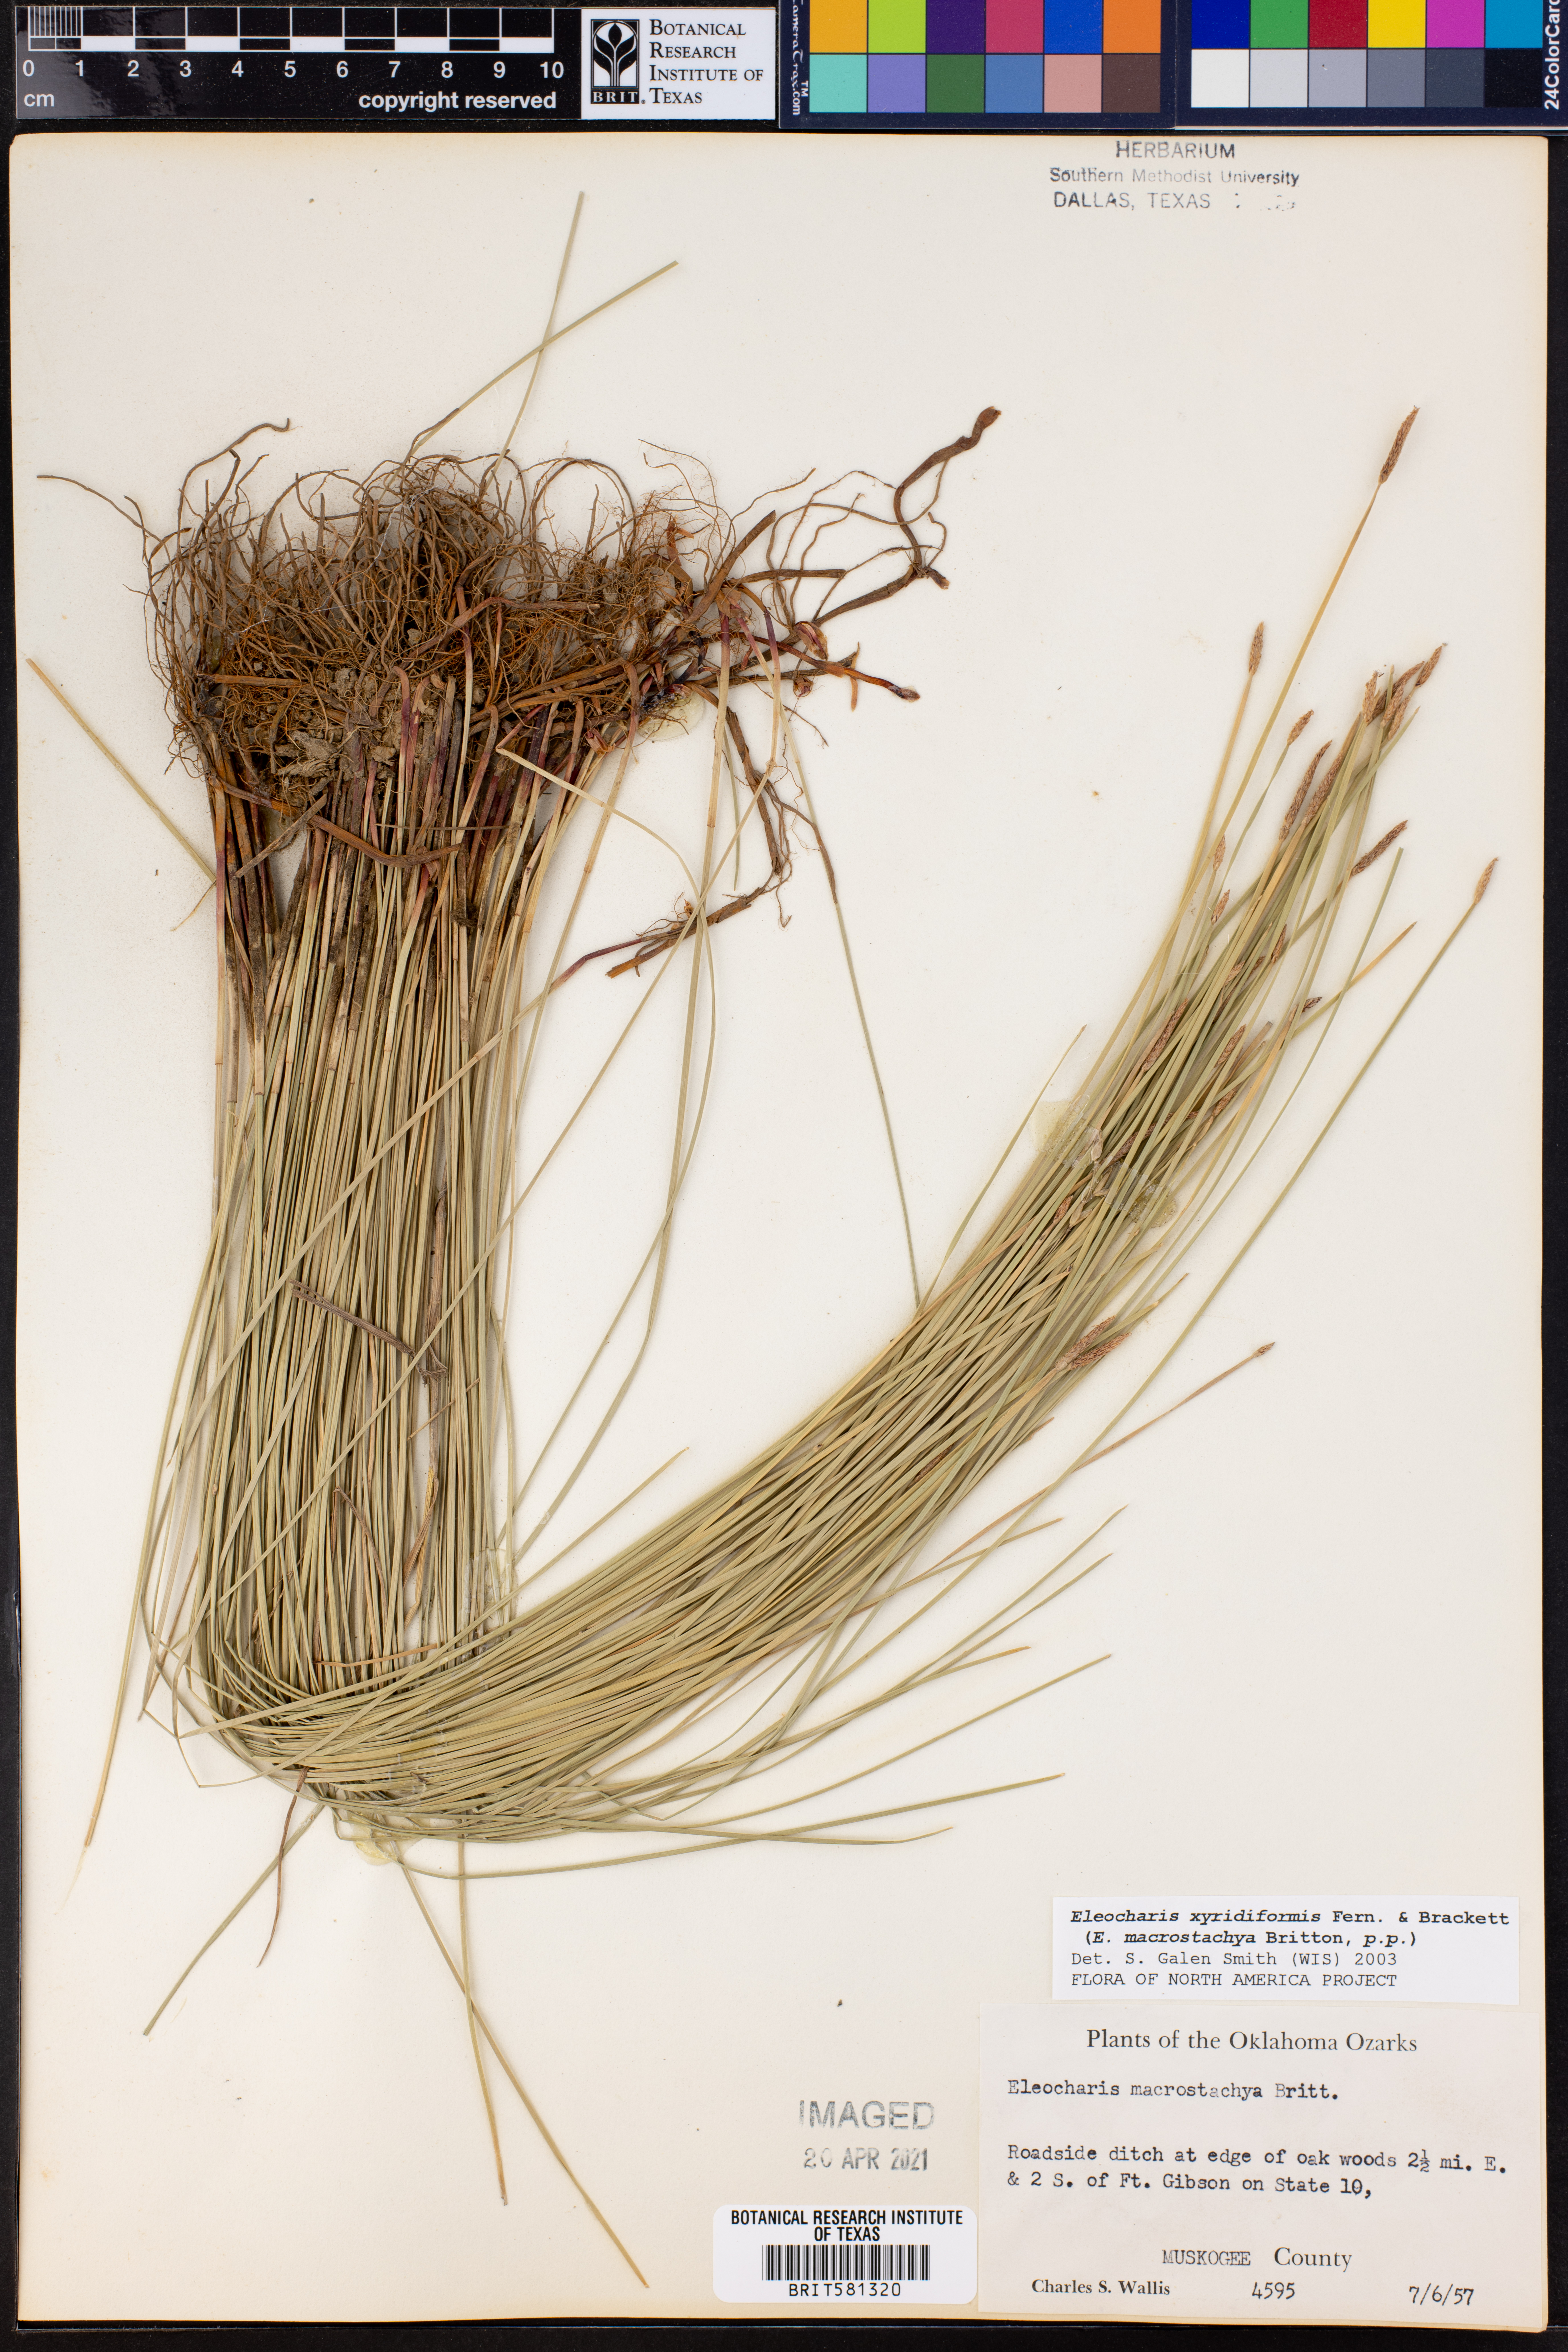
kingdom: Plantae
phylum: Tracheophyta
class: Liliopsida
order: Poales
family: Cyperaceae
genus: Eleocharis
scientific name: Eleocharis macrostachya
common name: Pale spikerush
